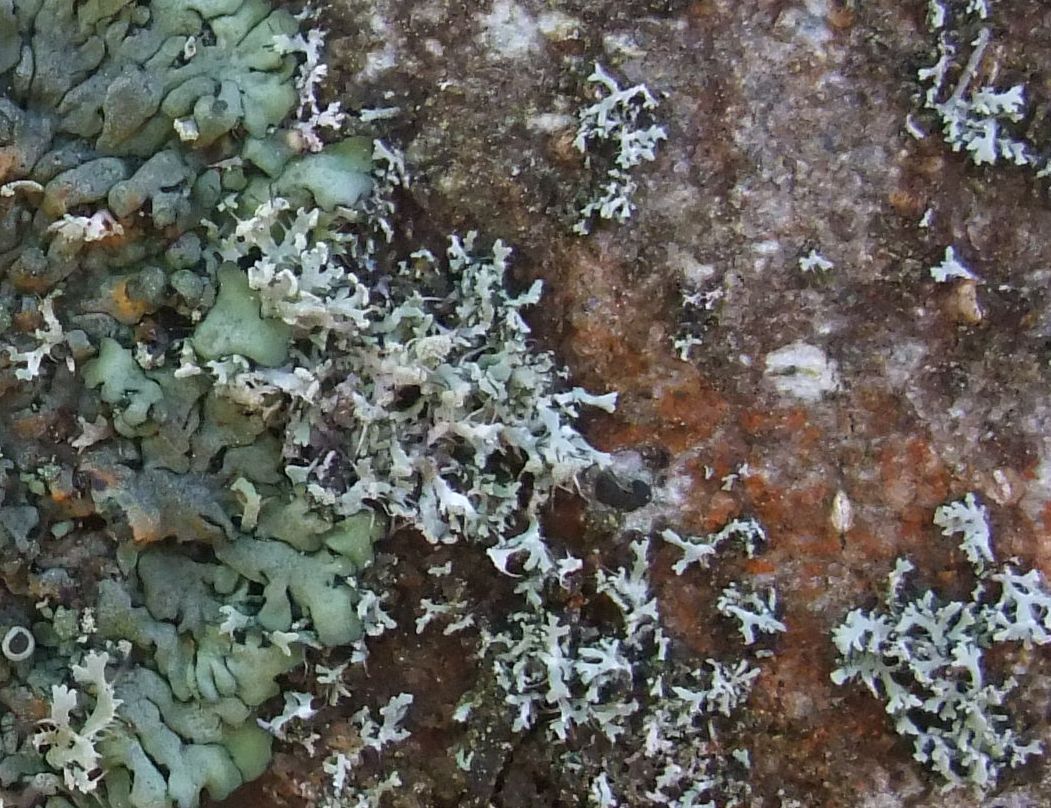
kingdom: Fungi
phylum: Ascomycota
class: Lecanoromycetes
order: Caliciales
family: Physciaceae
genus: Physcia
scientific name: Physcia tenella
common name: spæd rosetlav
